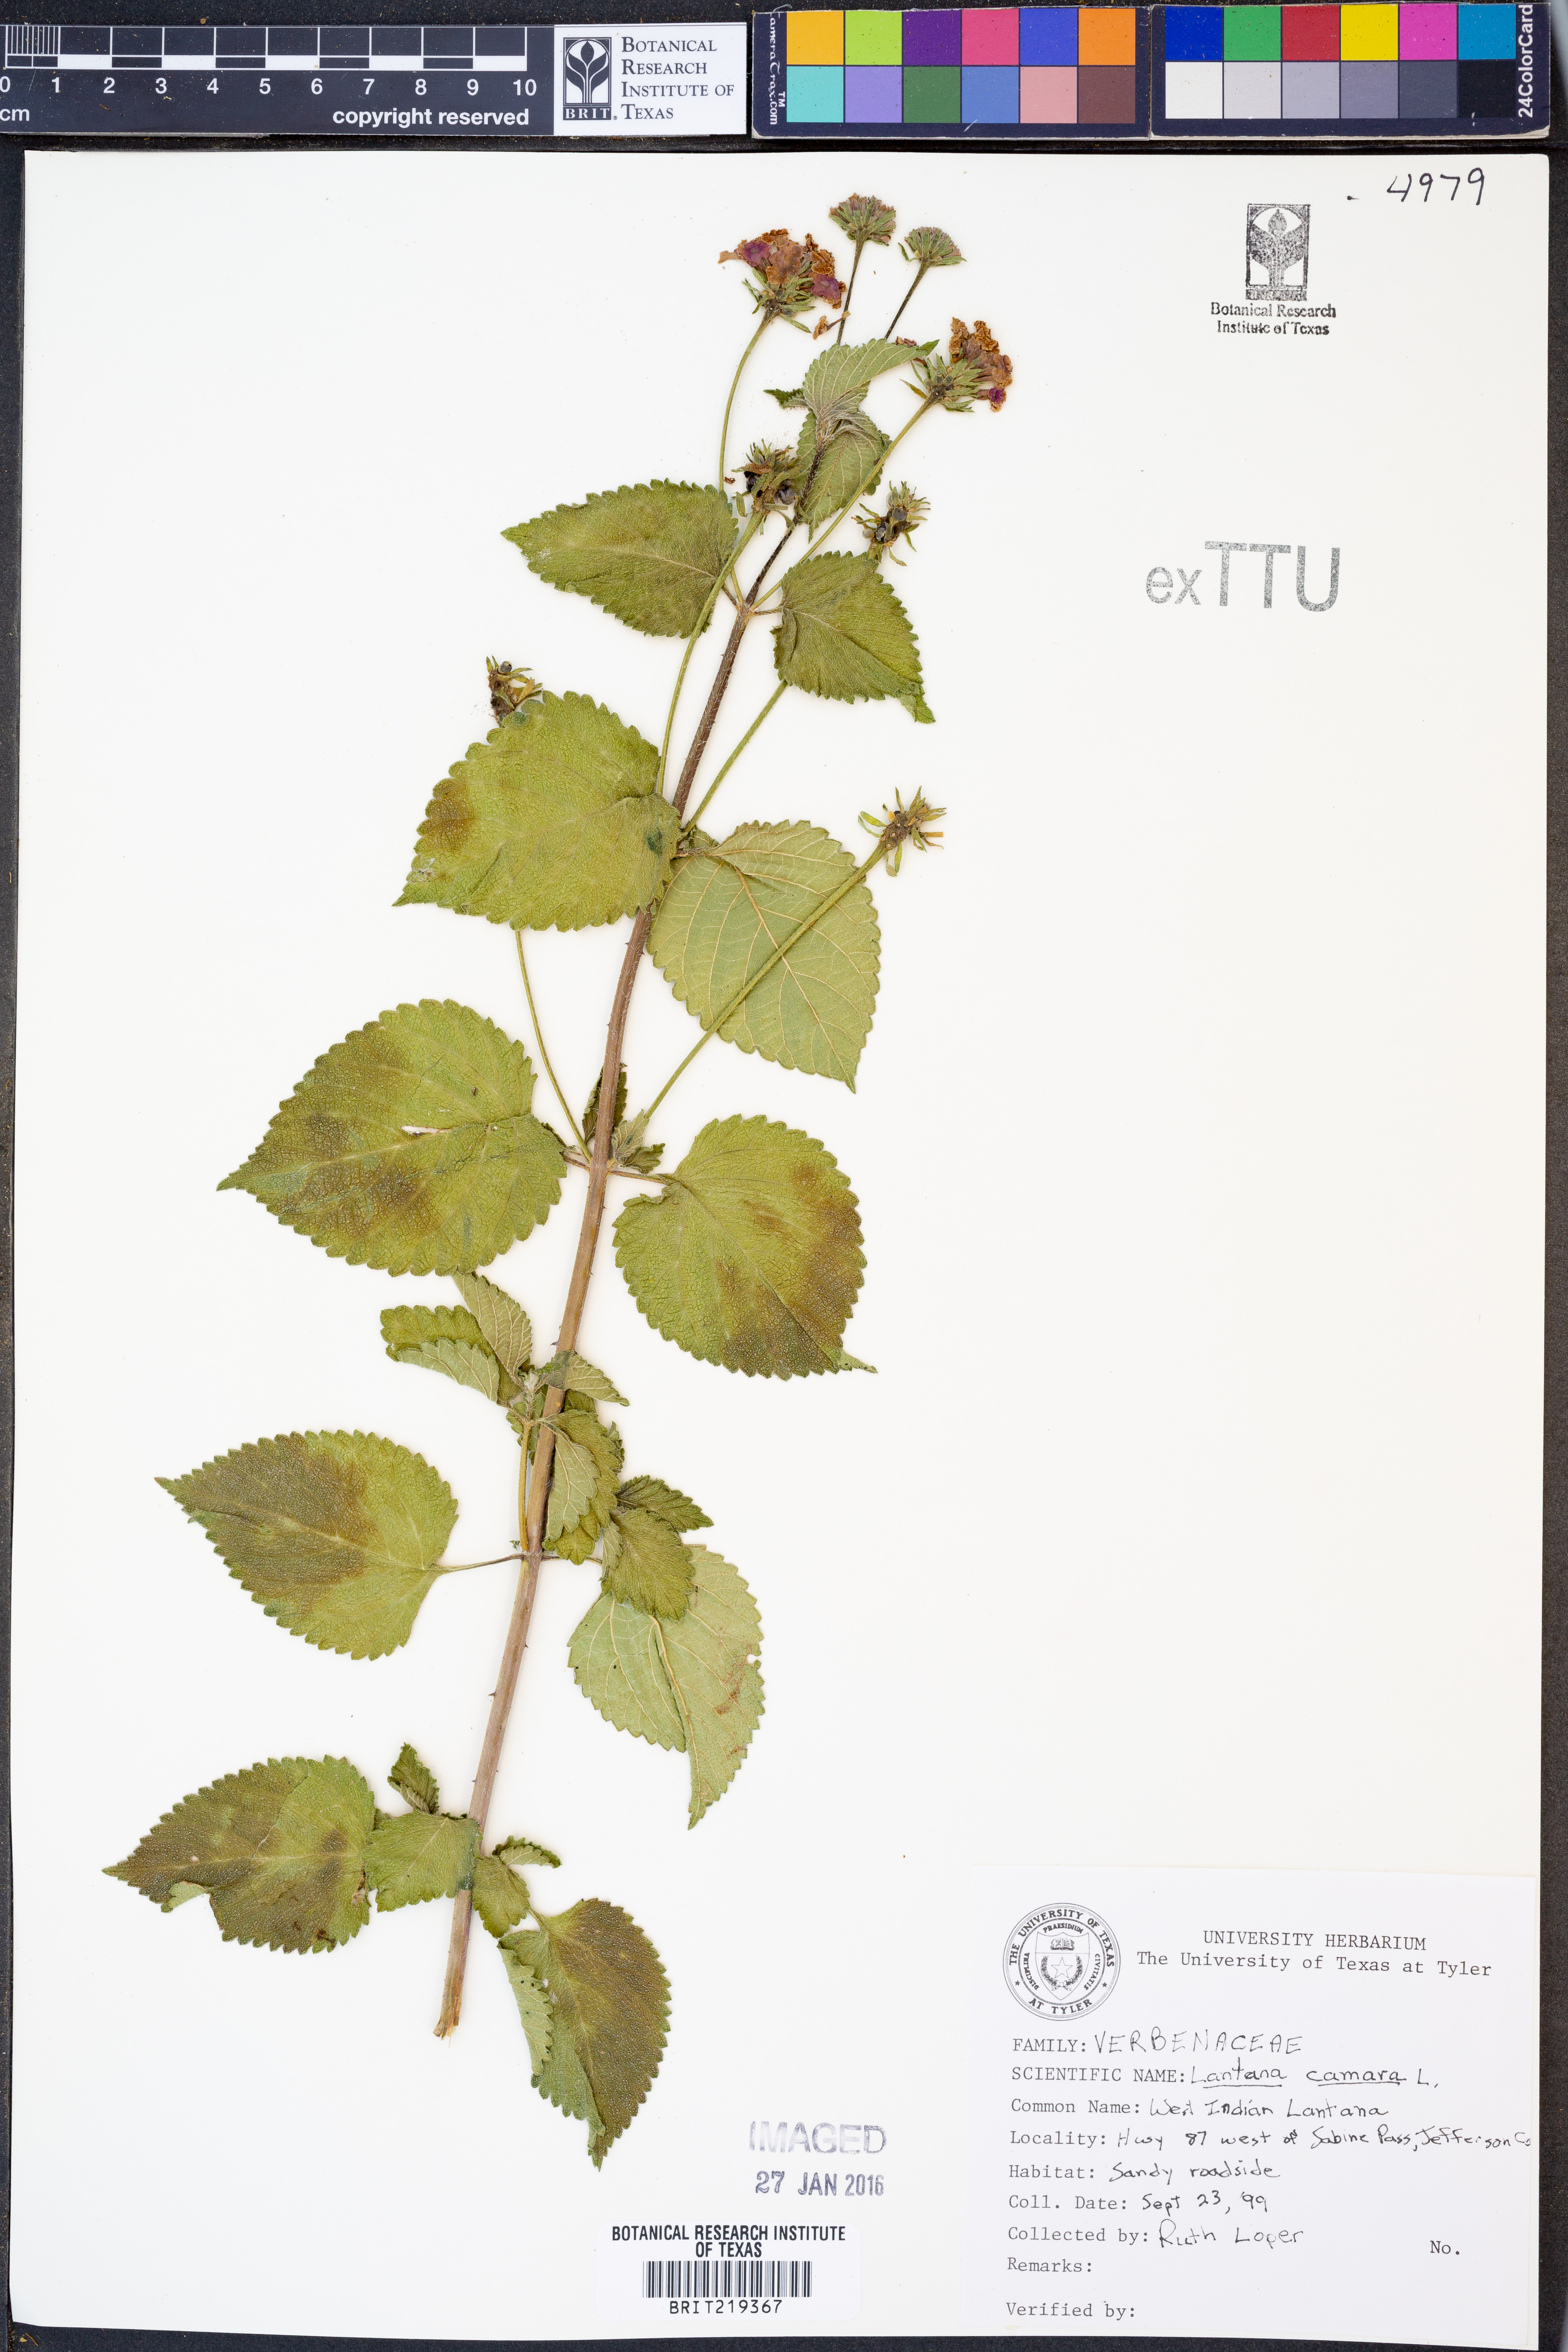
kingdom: Plantae
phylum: Tracheophyta
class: Magnoliopsida
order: Lamiales
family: Verbenaceae
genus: Lantana
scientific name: Lantana camara
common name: Lantana
